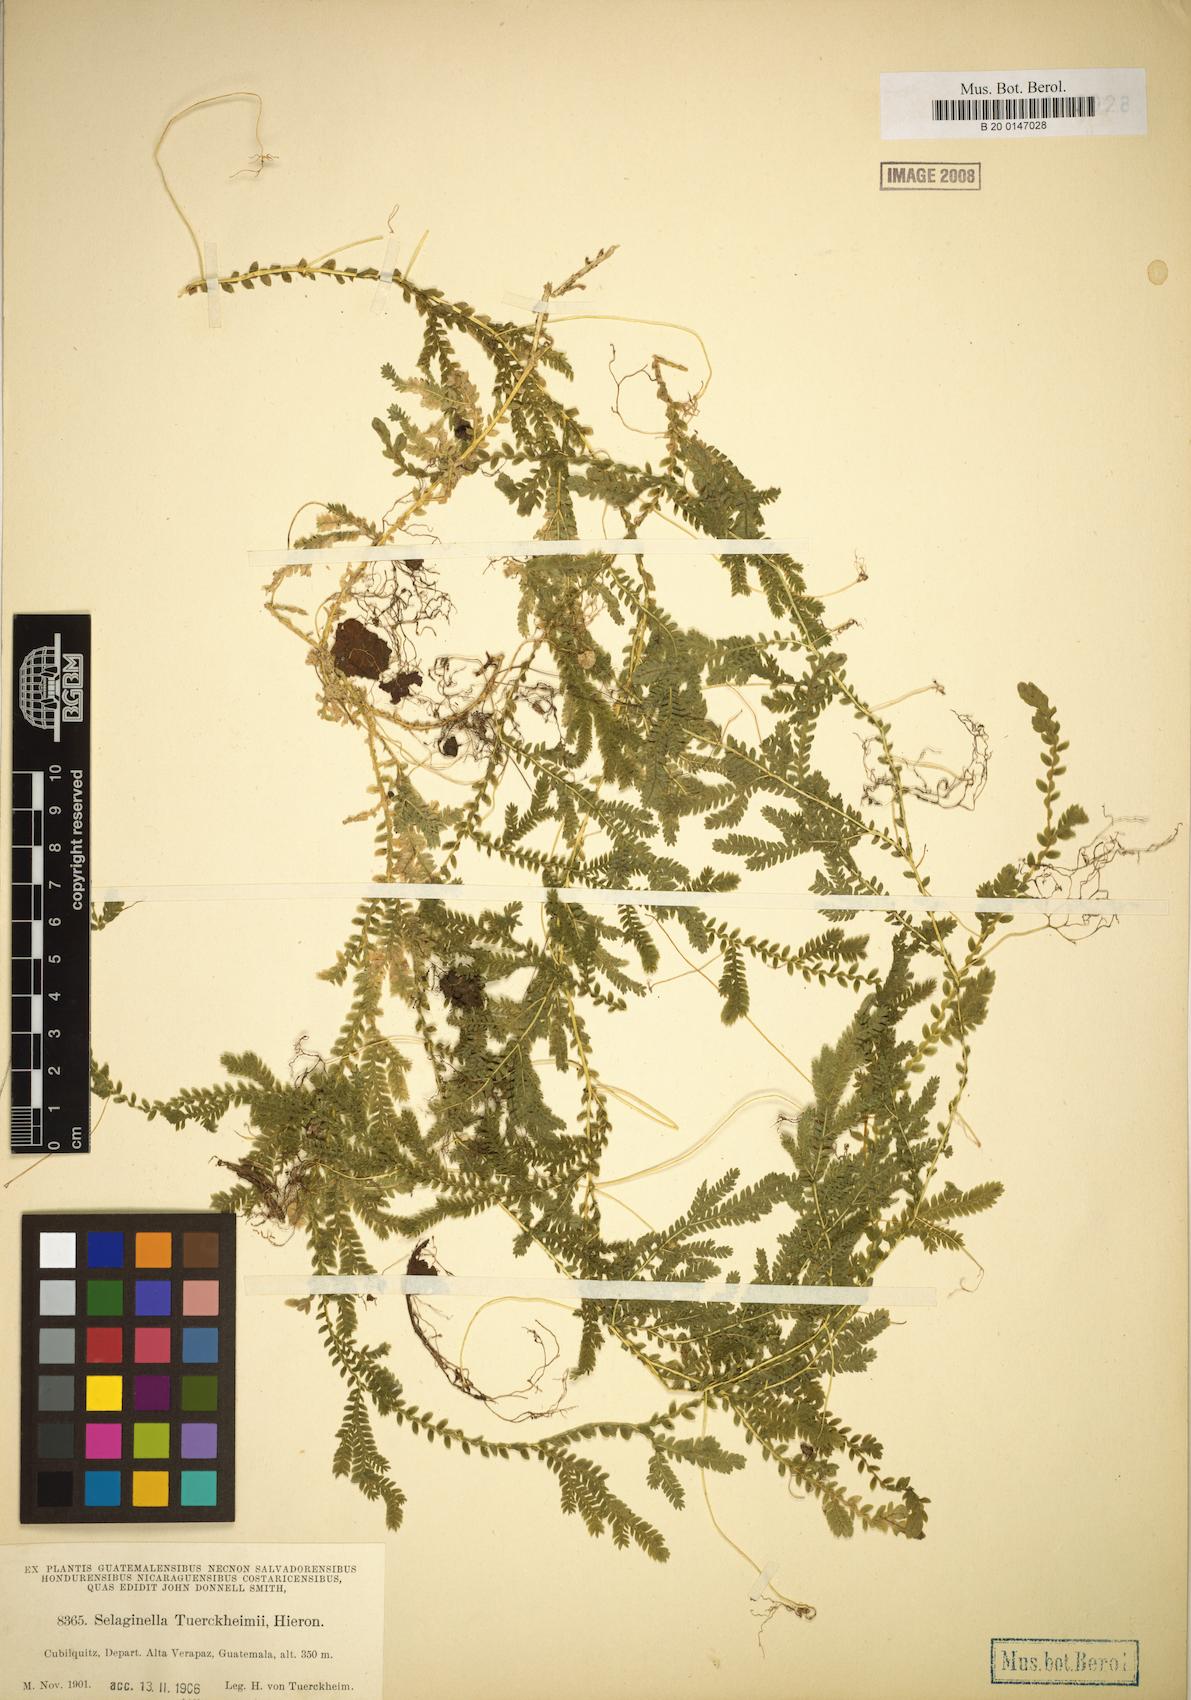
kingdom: Plantae
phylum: Tracheophyta
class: Lycopodiopsida
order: Selaginellales
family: Selaginellaceae
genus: Selaginella
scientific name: Selaginella sertata
